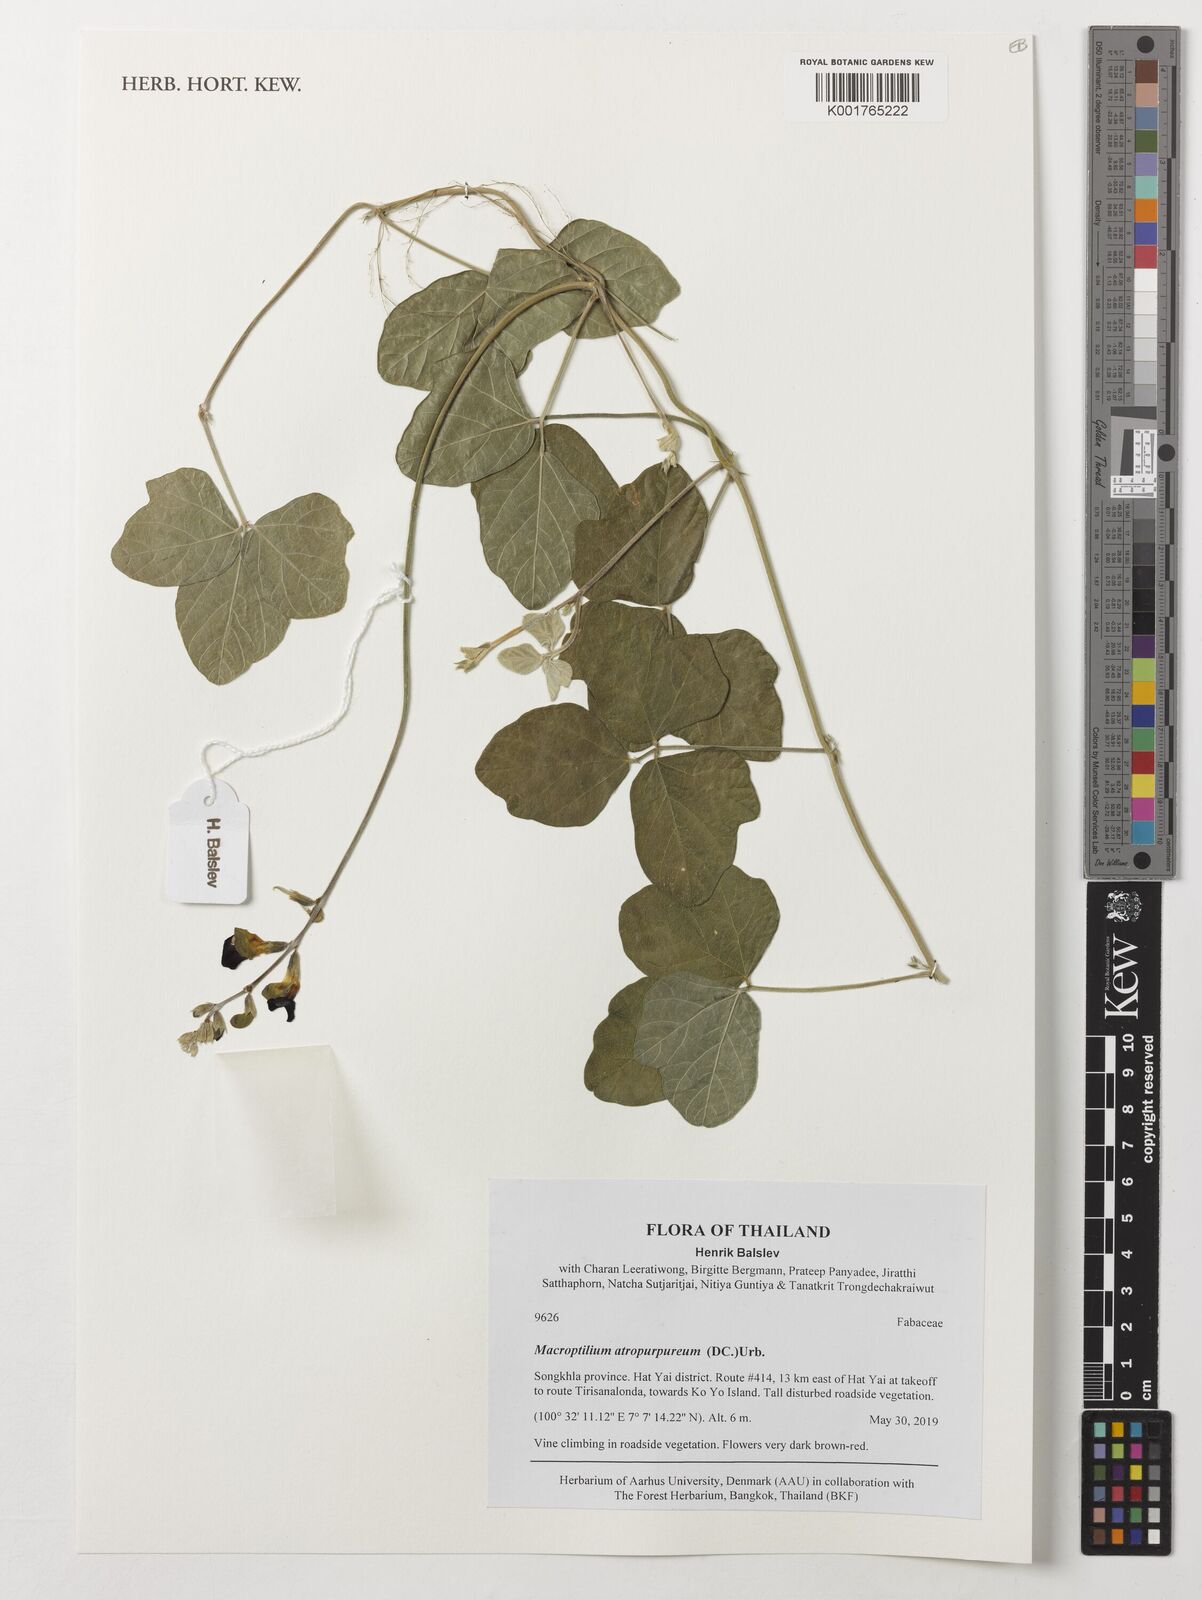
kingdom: Plantae
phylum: Tracheophyta
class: Magnoliopsida
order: Fabales
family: Fabaceae
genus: Macroptilium
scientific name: Macroptilium atropurpureum
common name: Purple bushbean
